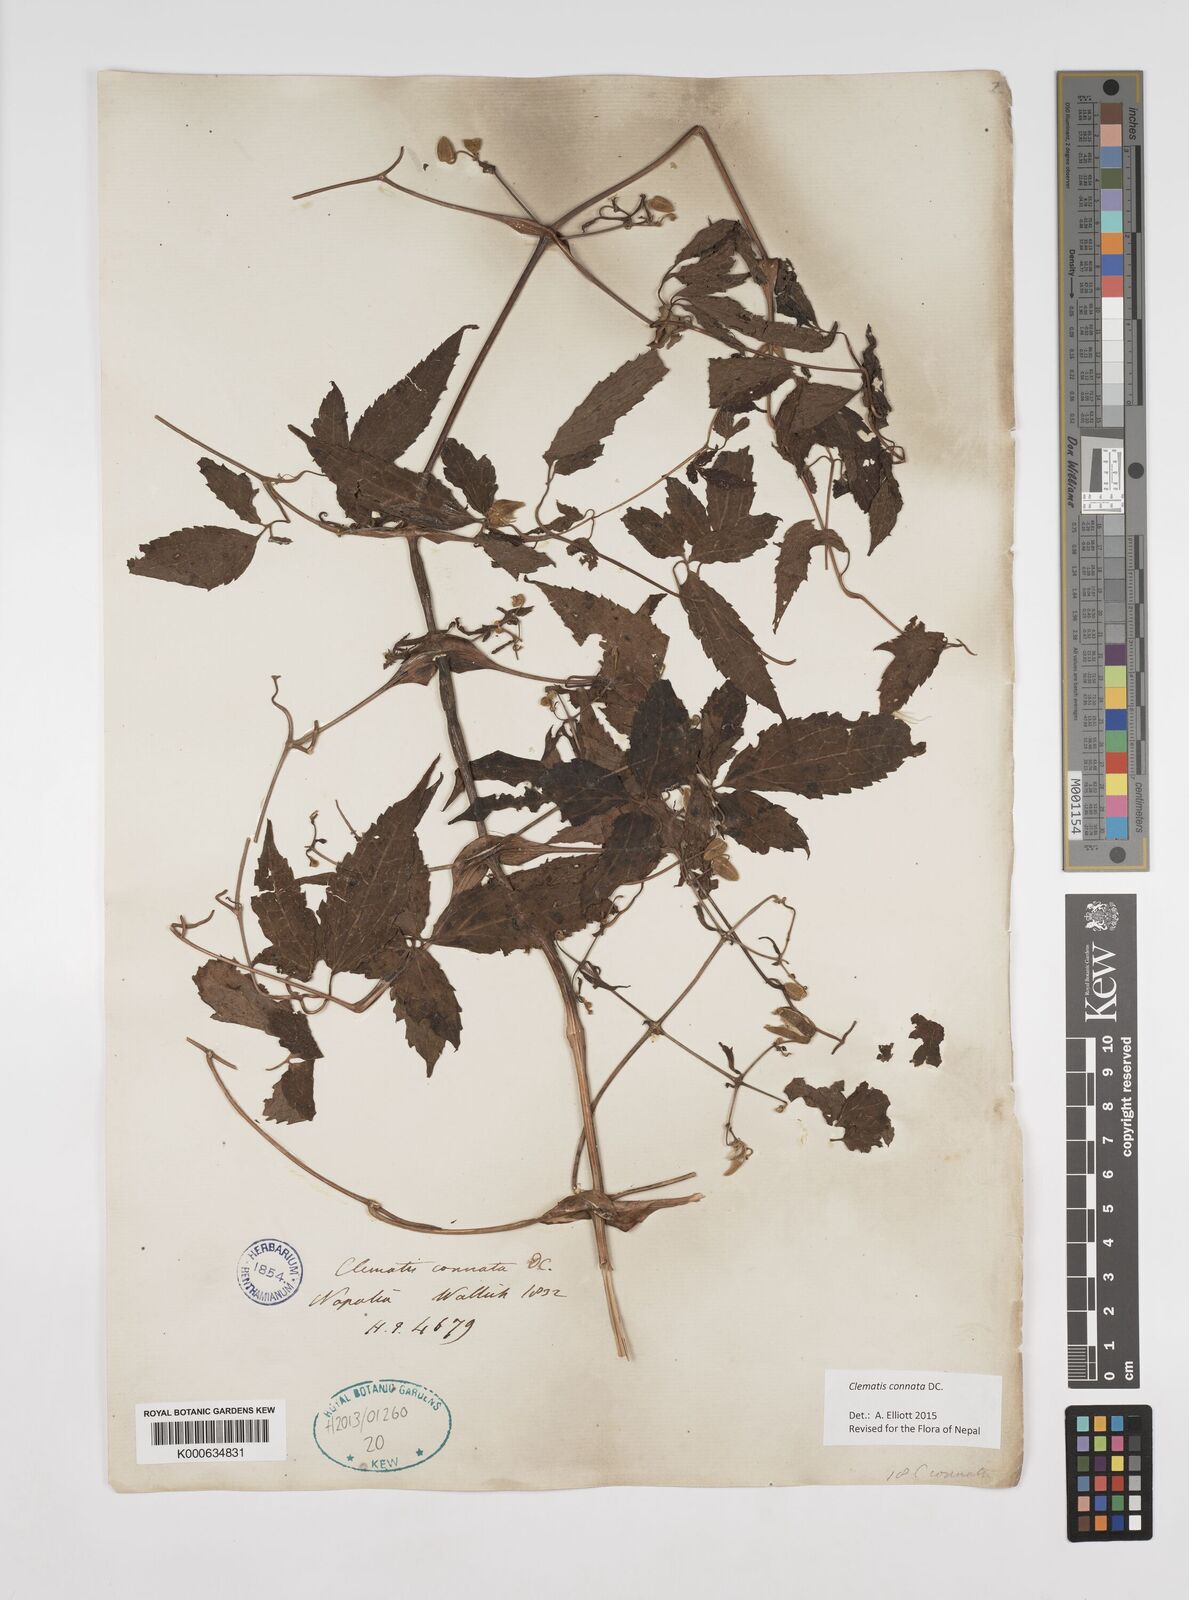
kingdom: Plantae
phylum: Tracheophyta
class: Magnoliopsida
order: Ranunculales
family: Ranunculaceae
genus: Clematis
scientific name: Clematis connata
